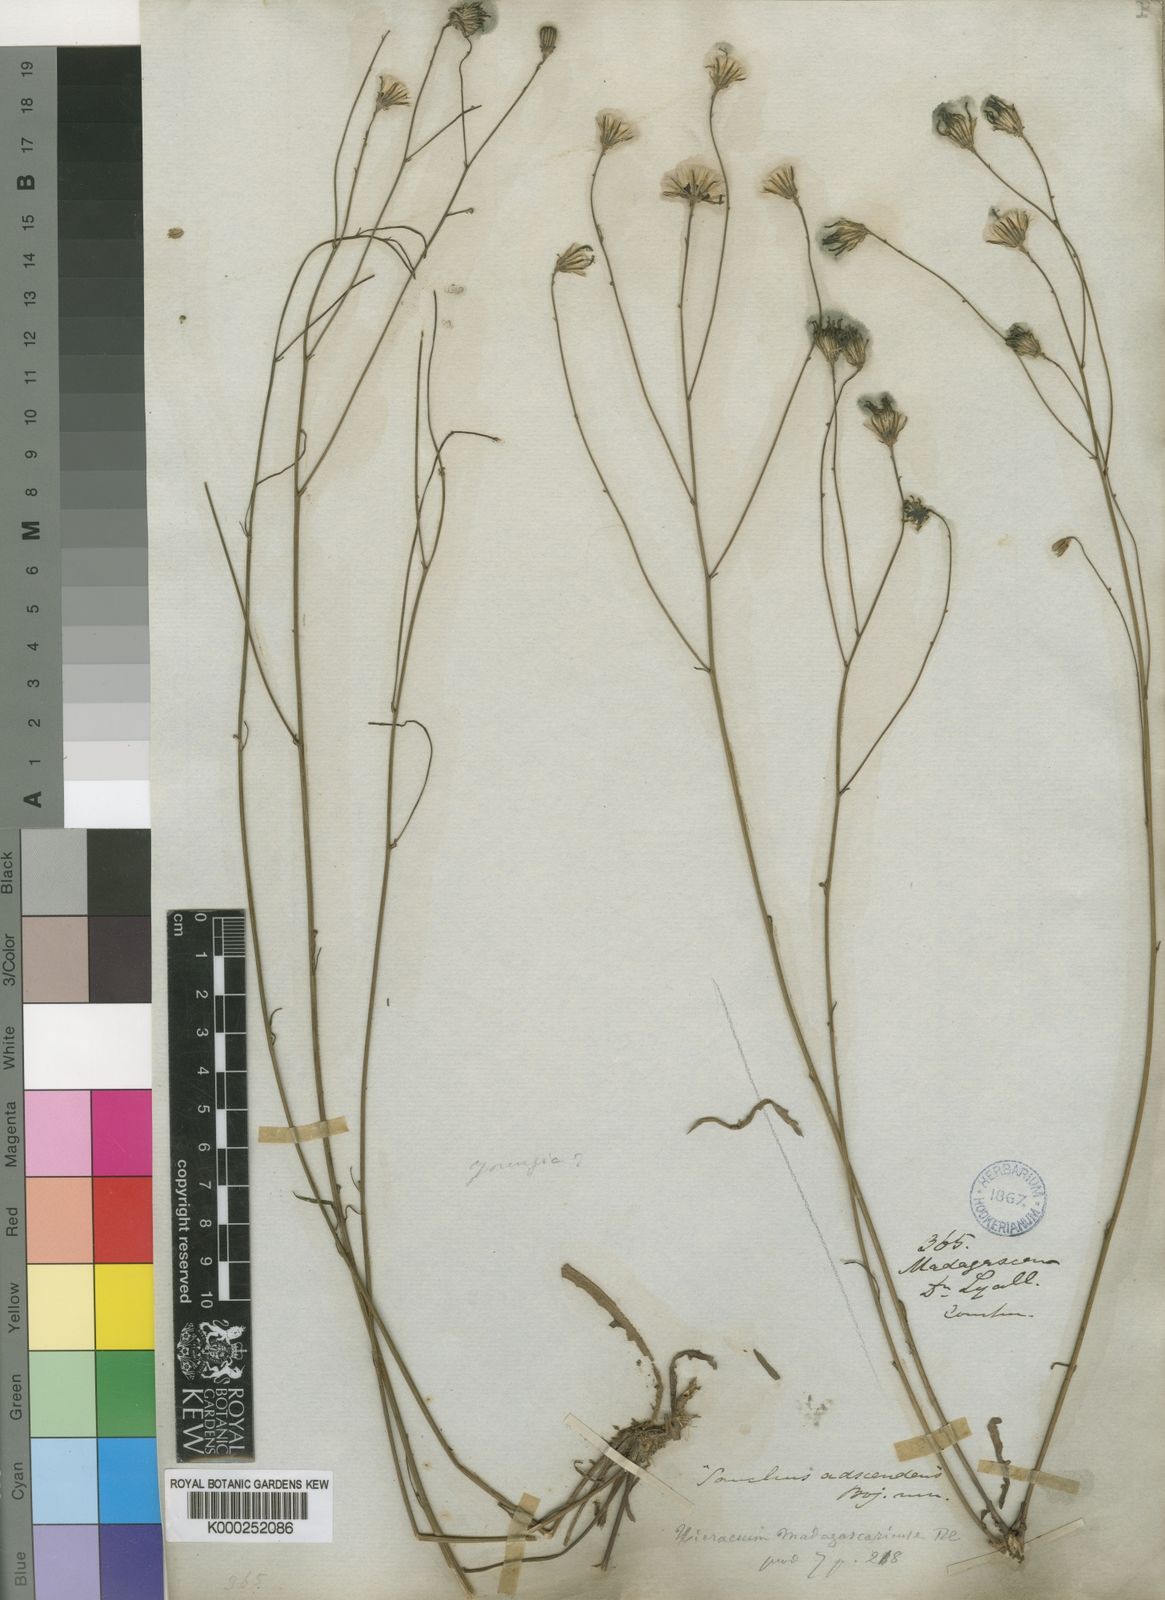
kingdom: Plantae
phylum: Tracheophyta
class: Magnoliopsida
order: Asterales
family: Asteraceae
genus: Tolpis
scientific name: Tolpis capensis
